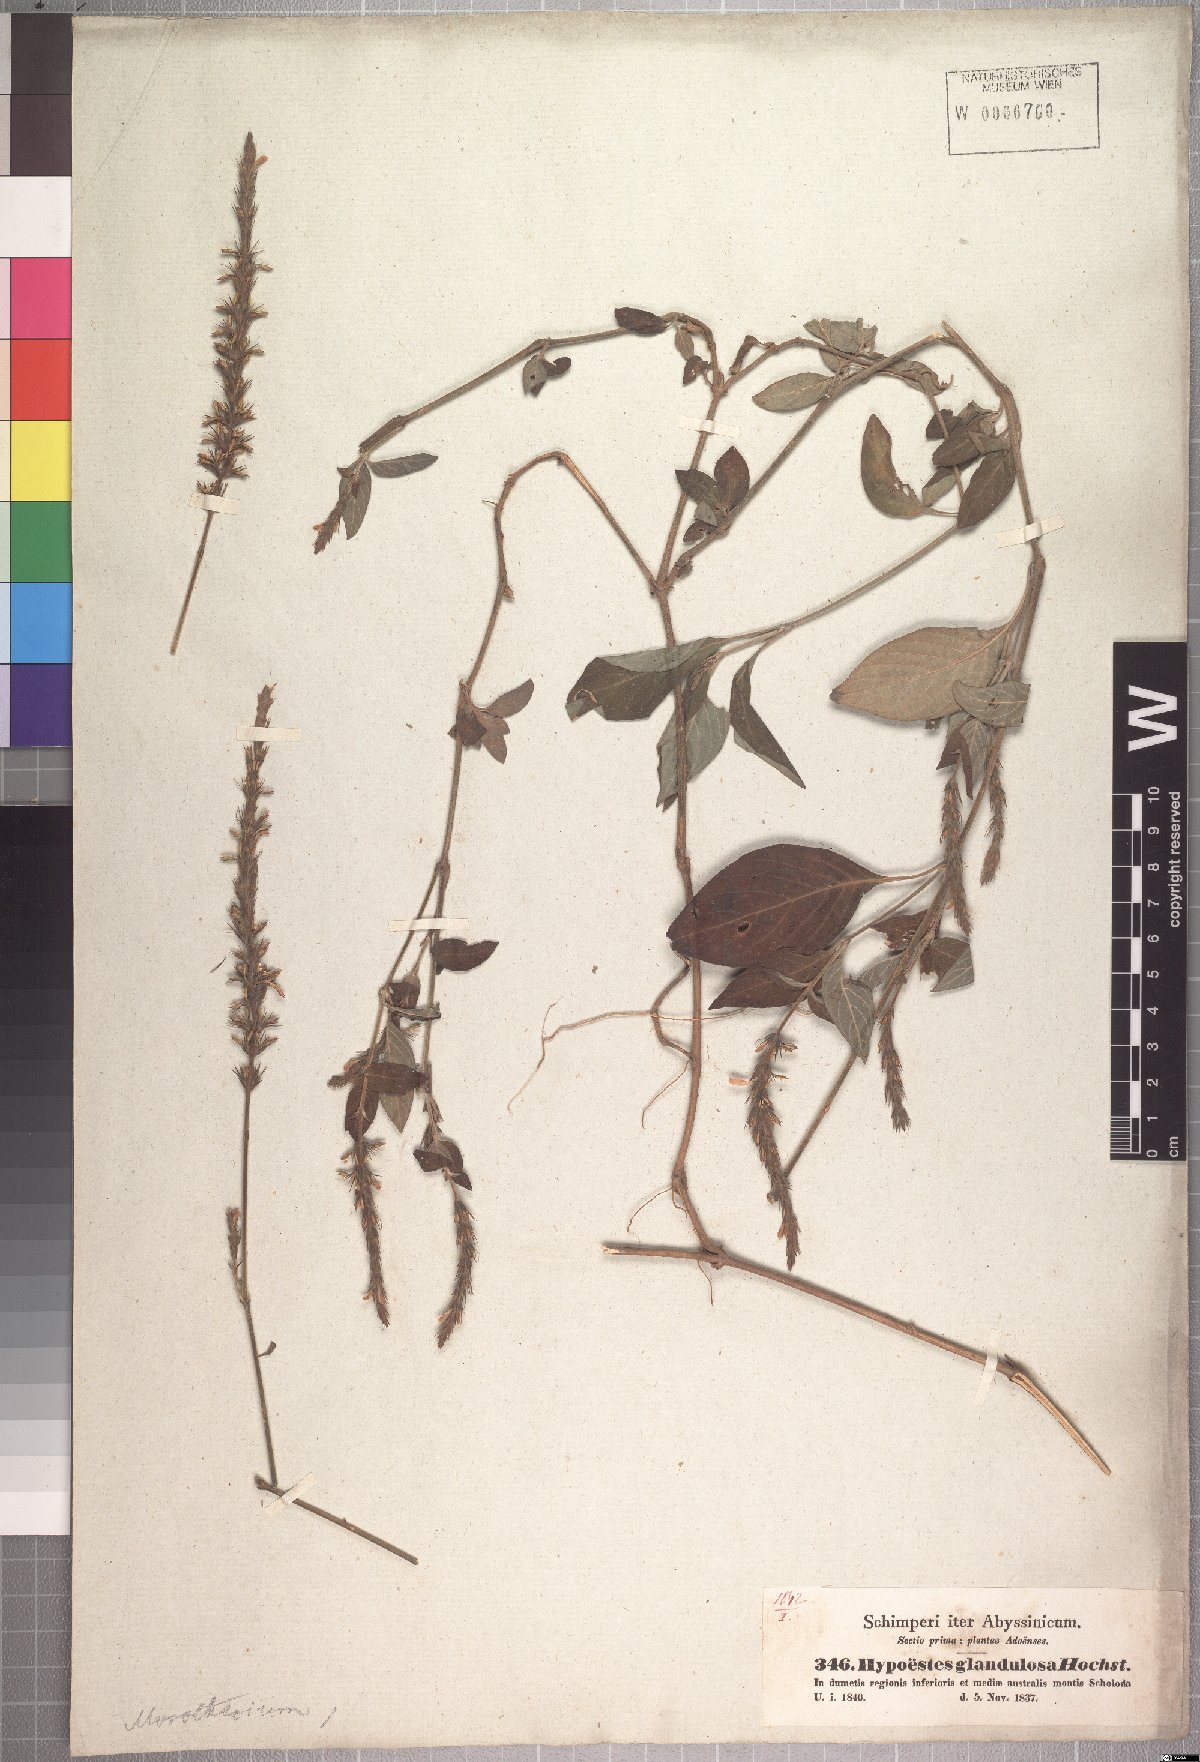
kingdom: Plantae
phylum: Tracheophyta
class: Magnoliopsida
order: Lamiales
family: Acanthaceae
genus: Monothecium
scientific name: Monothecium glandulosum
